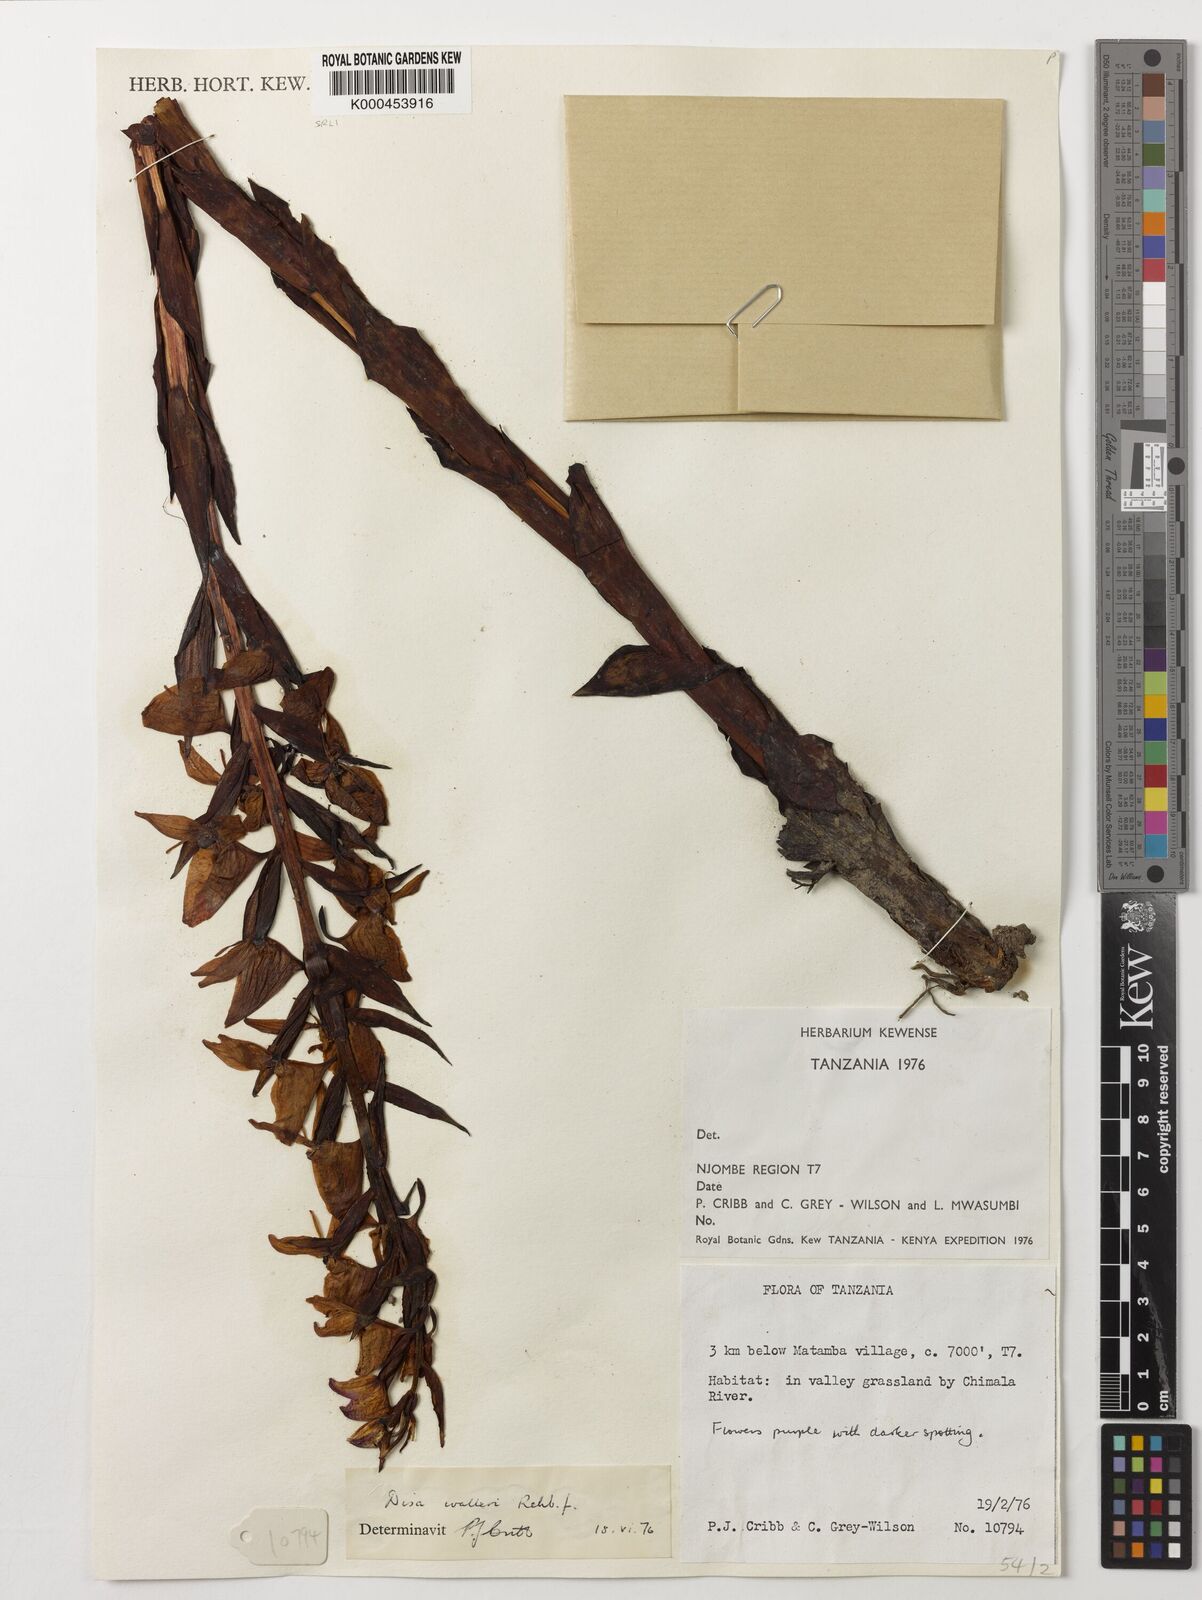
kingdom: Plantae
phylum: Tracheophyta
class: Liliopsida
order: Asparagales
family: Orchidaceae
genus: Disa
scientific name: Disa walleri
